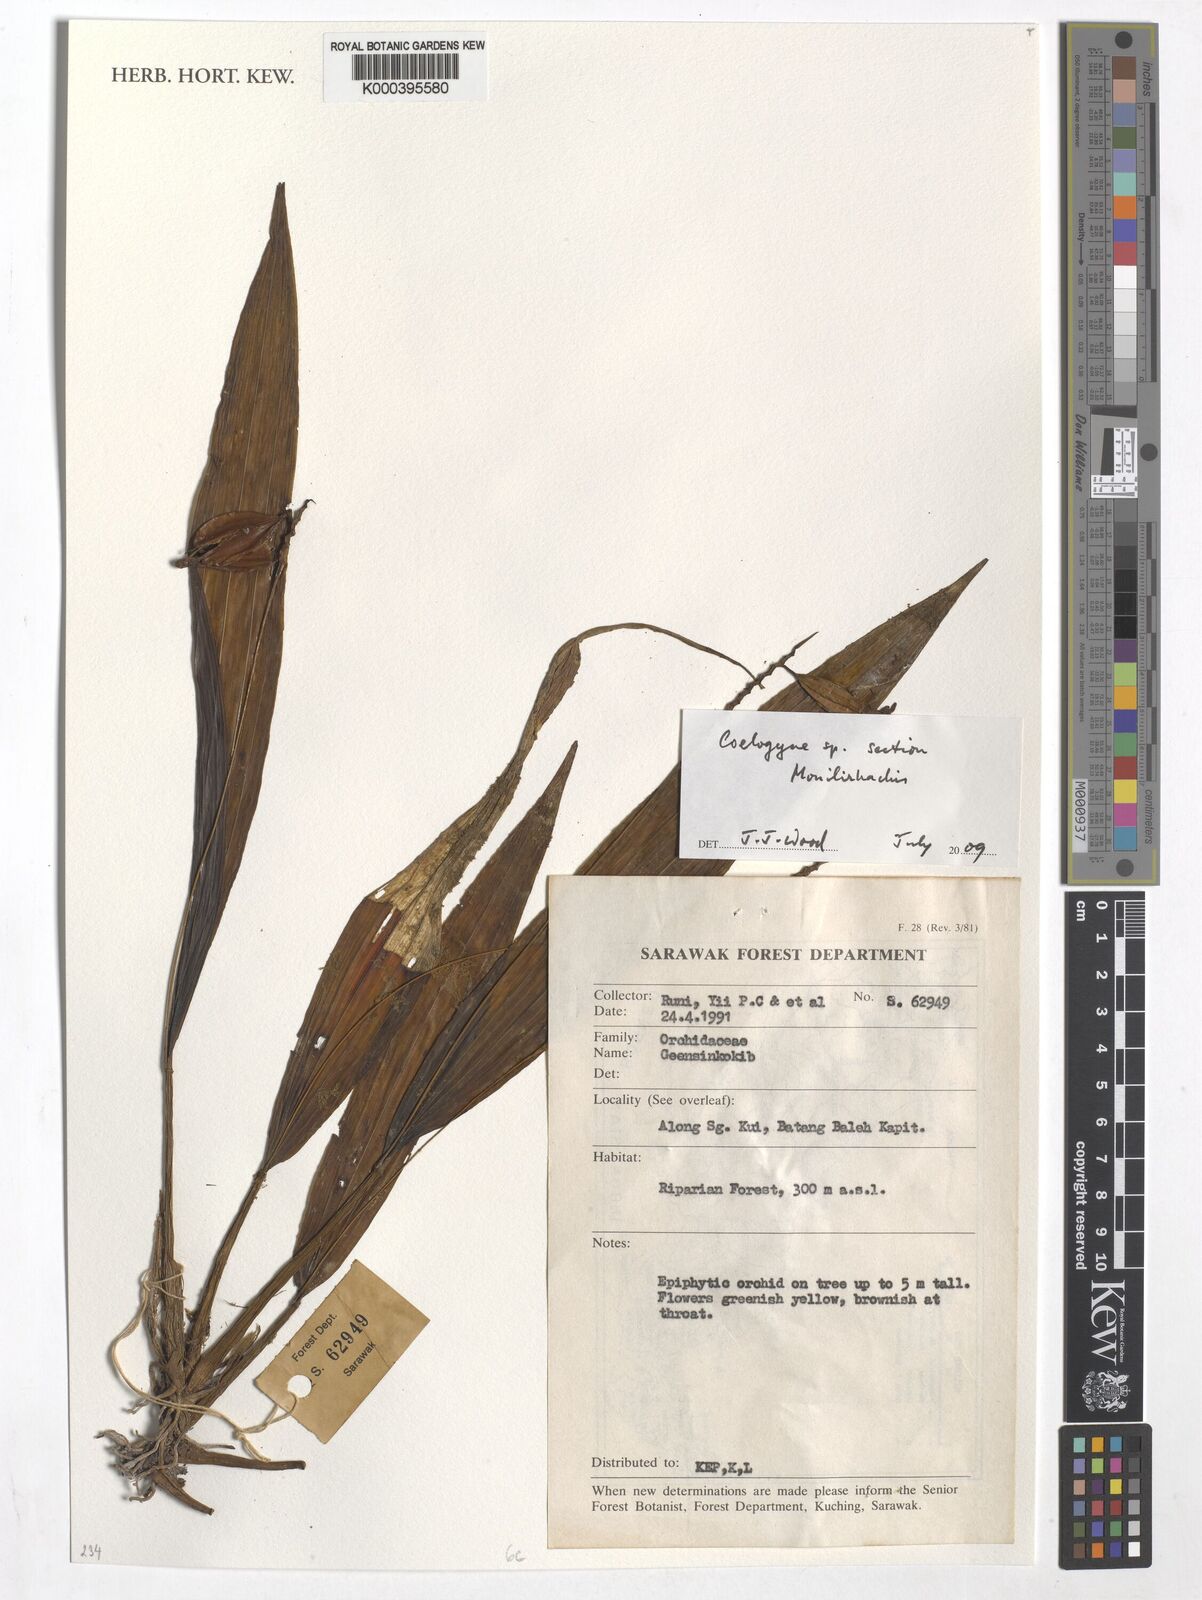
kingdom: Plantae
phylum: Tracheophyta
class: Liliopsida
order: Asparagales
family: Orchidaceae
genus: Coelogyne
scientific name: Coelogyne
